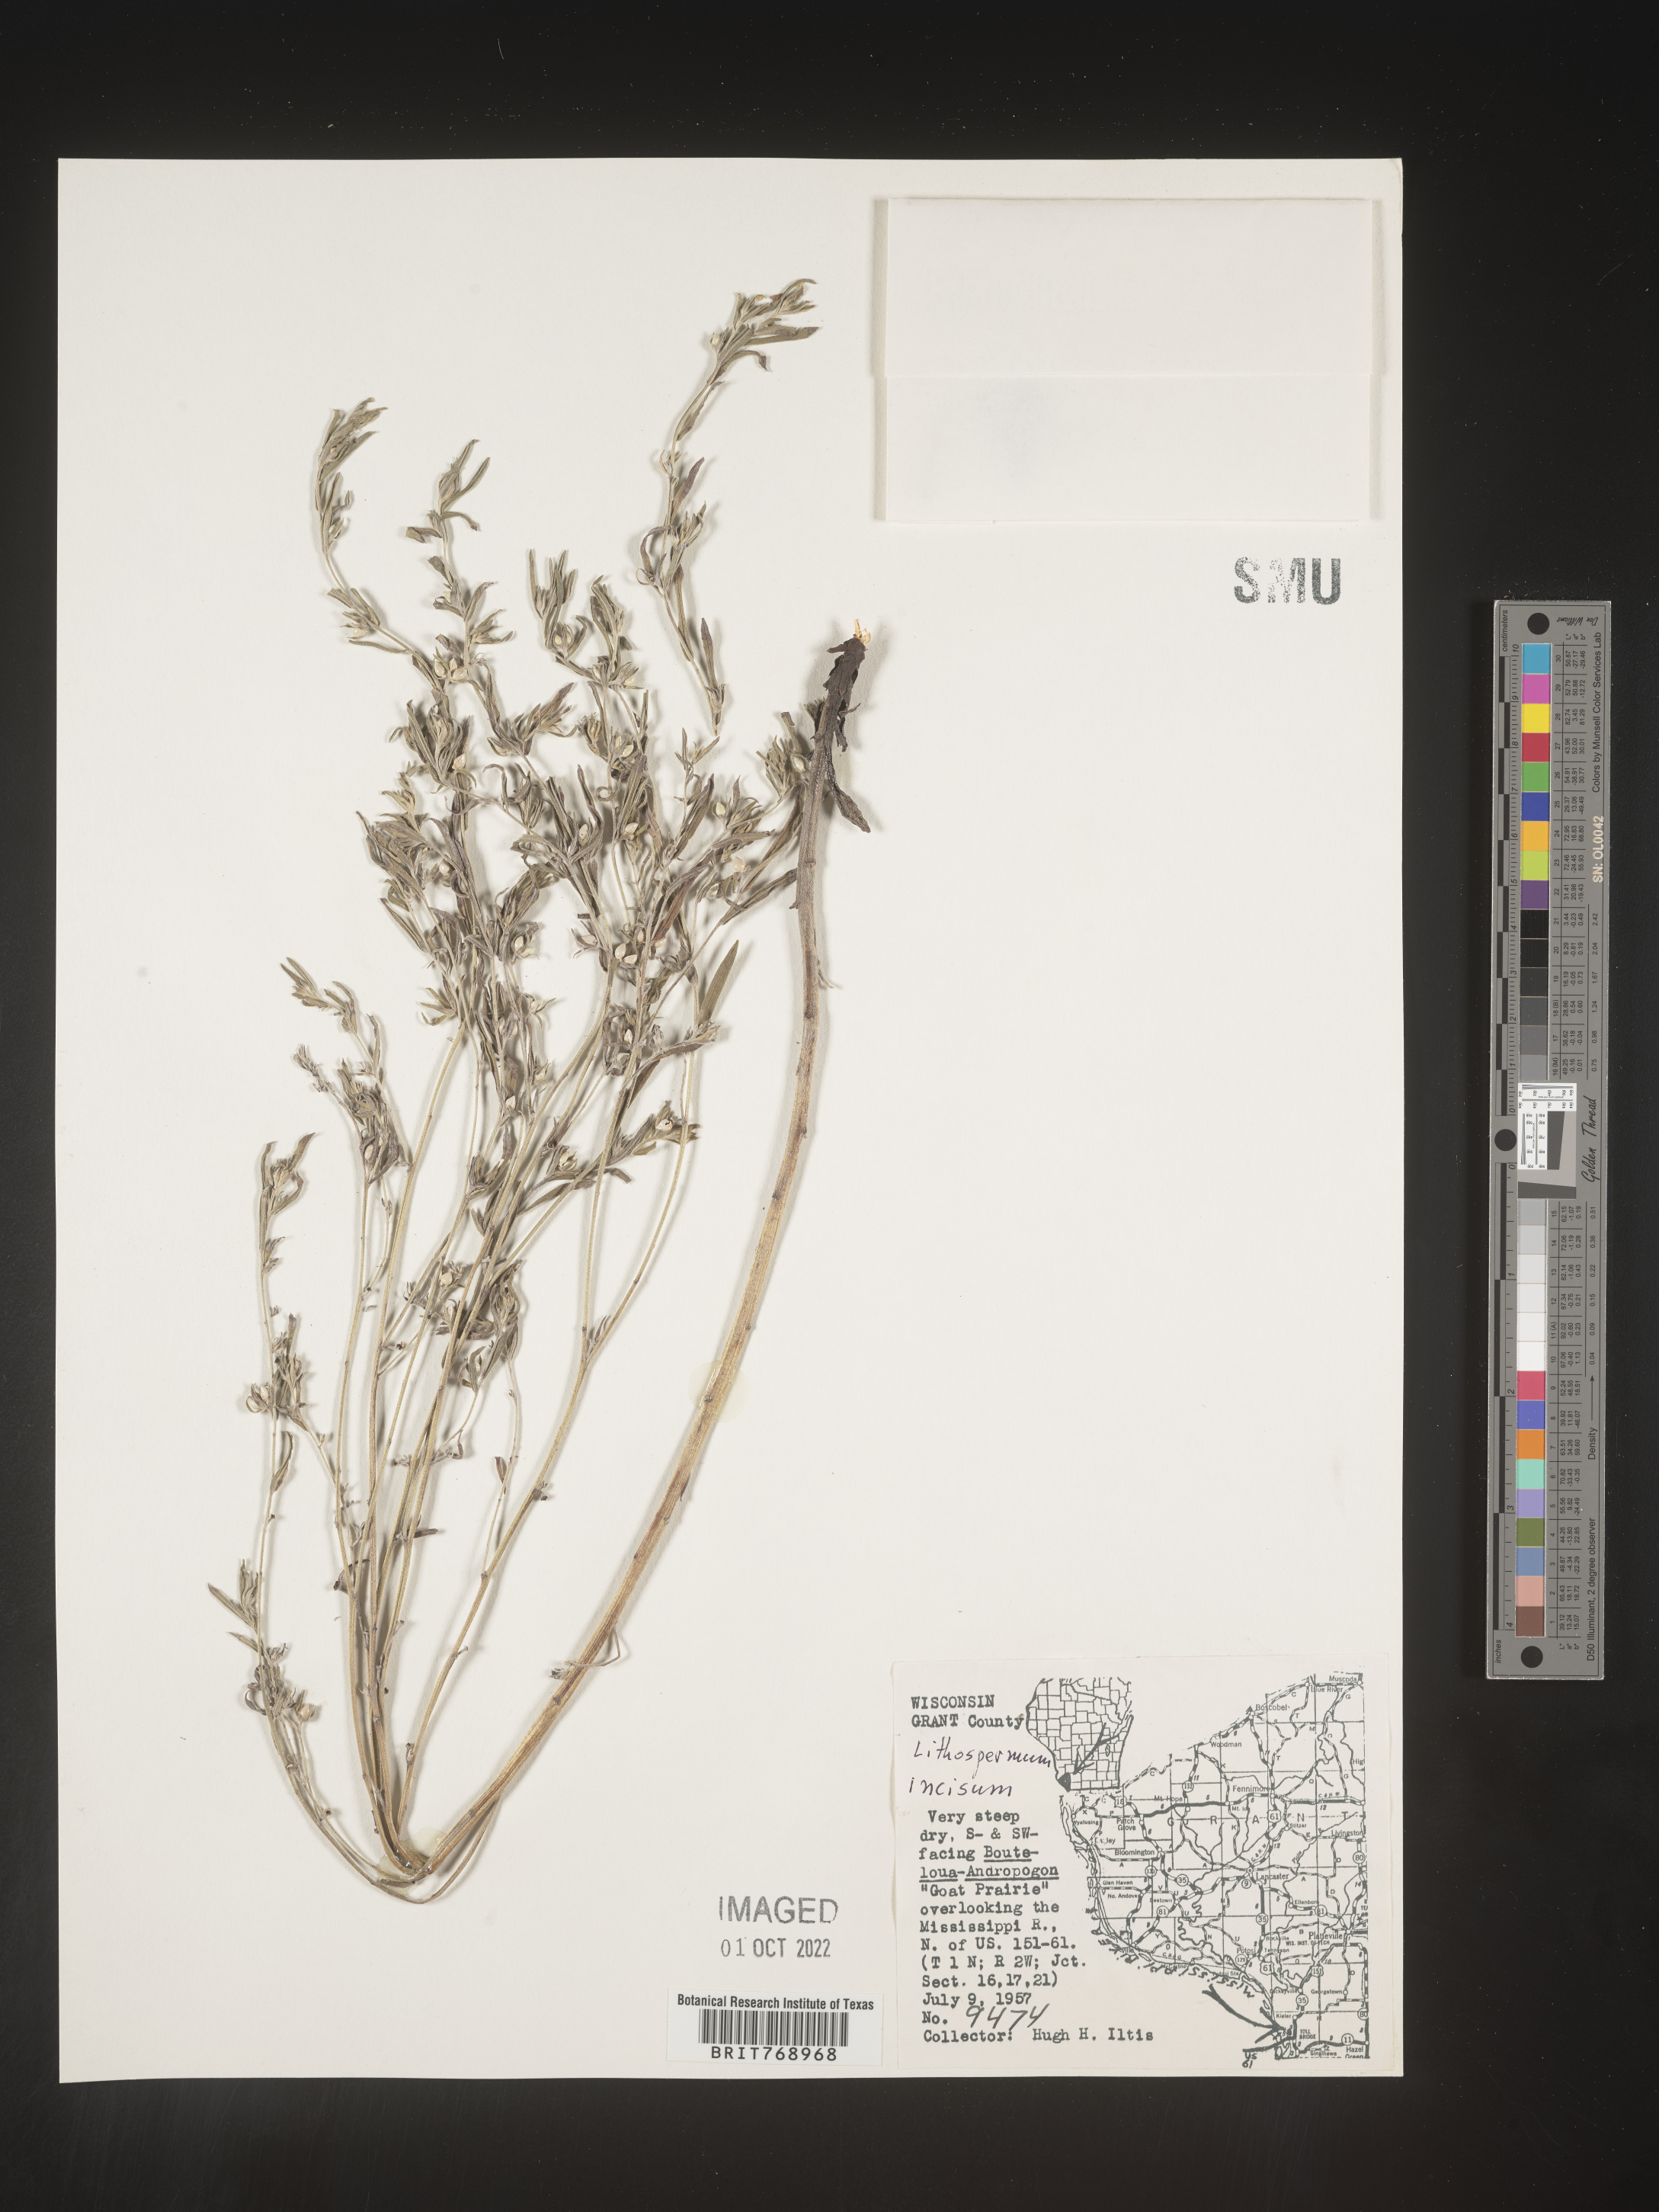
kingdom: Plantae
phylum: Tracheophyta
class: Magnoliopsida
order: Boraginales
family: Boraginaceae
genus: Lithospermum
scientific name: Lithospermum incisum
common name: Fringed gromwell
